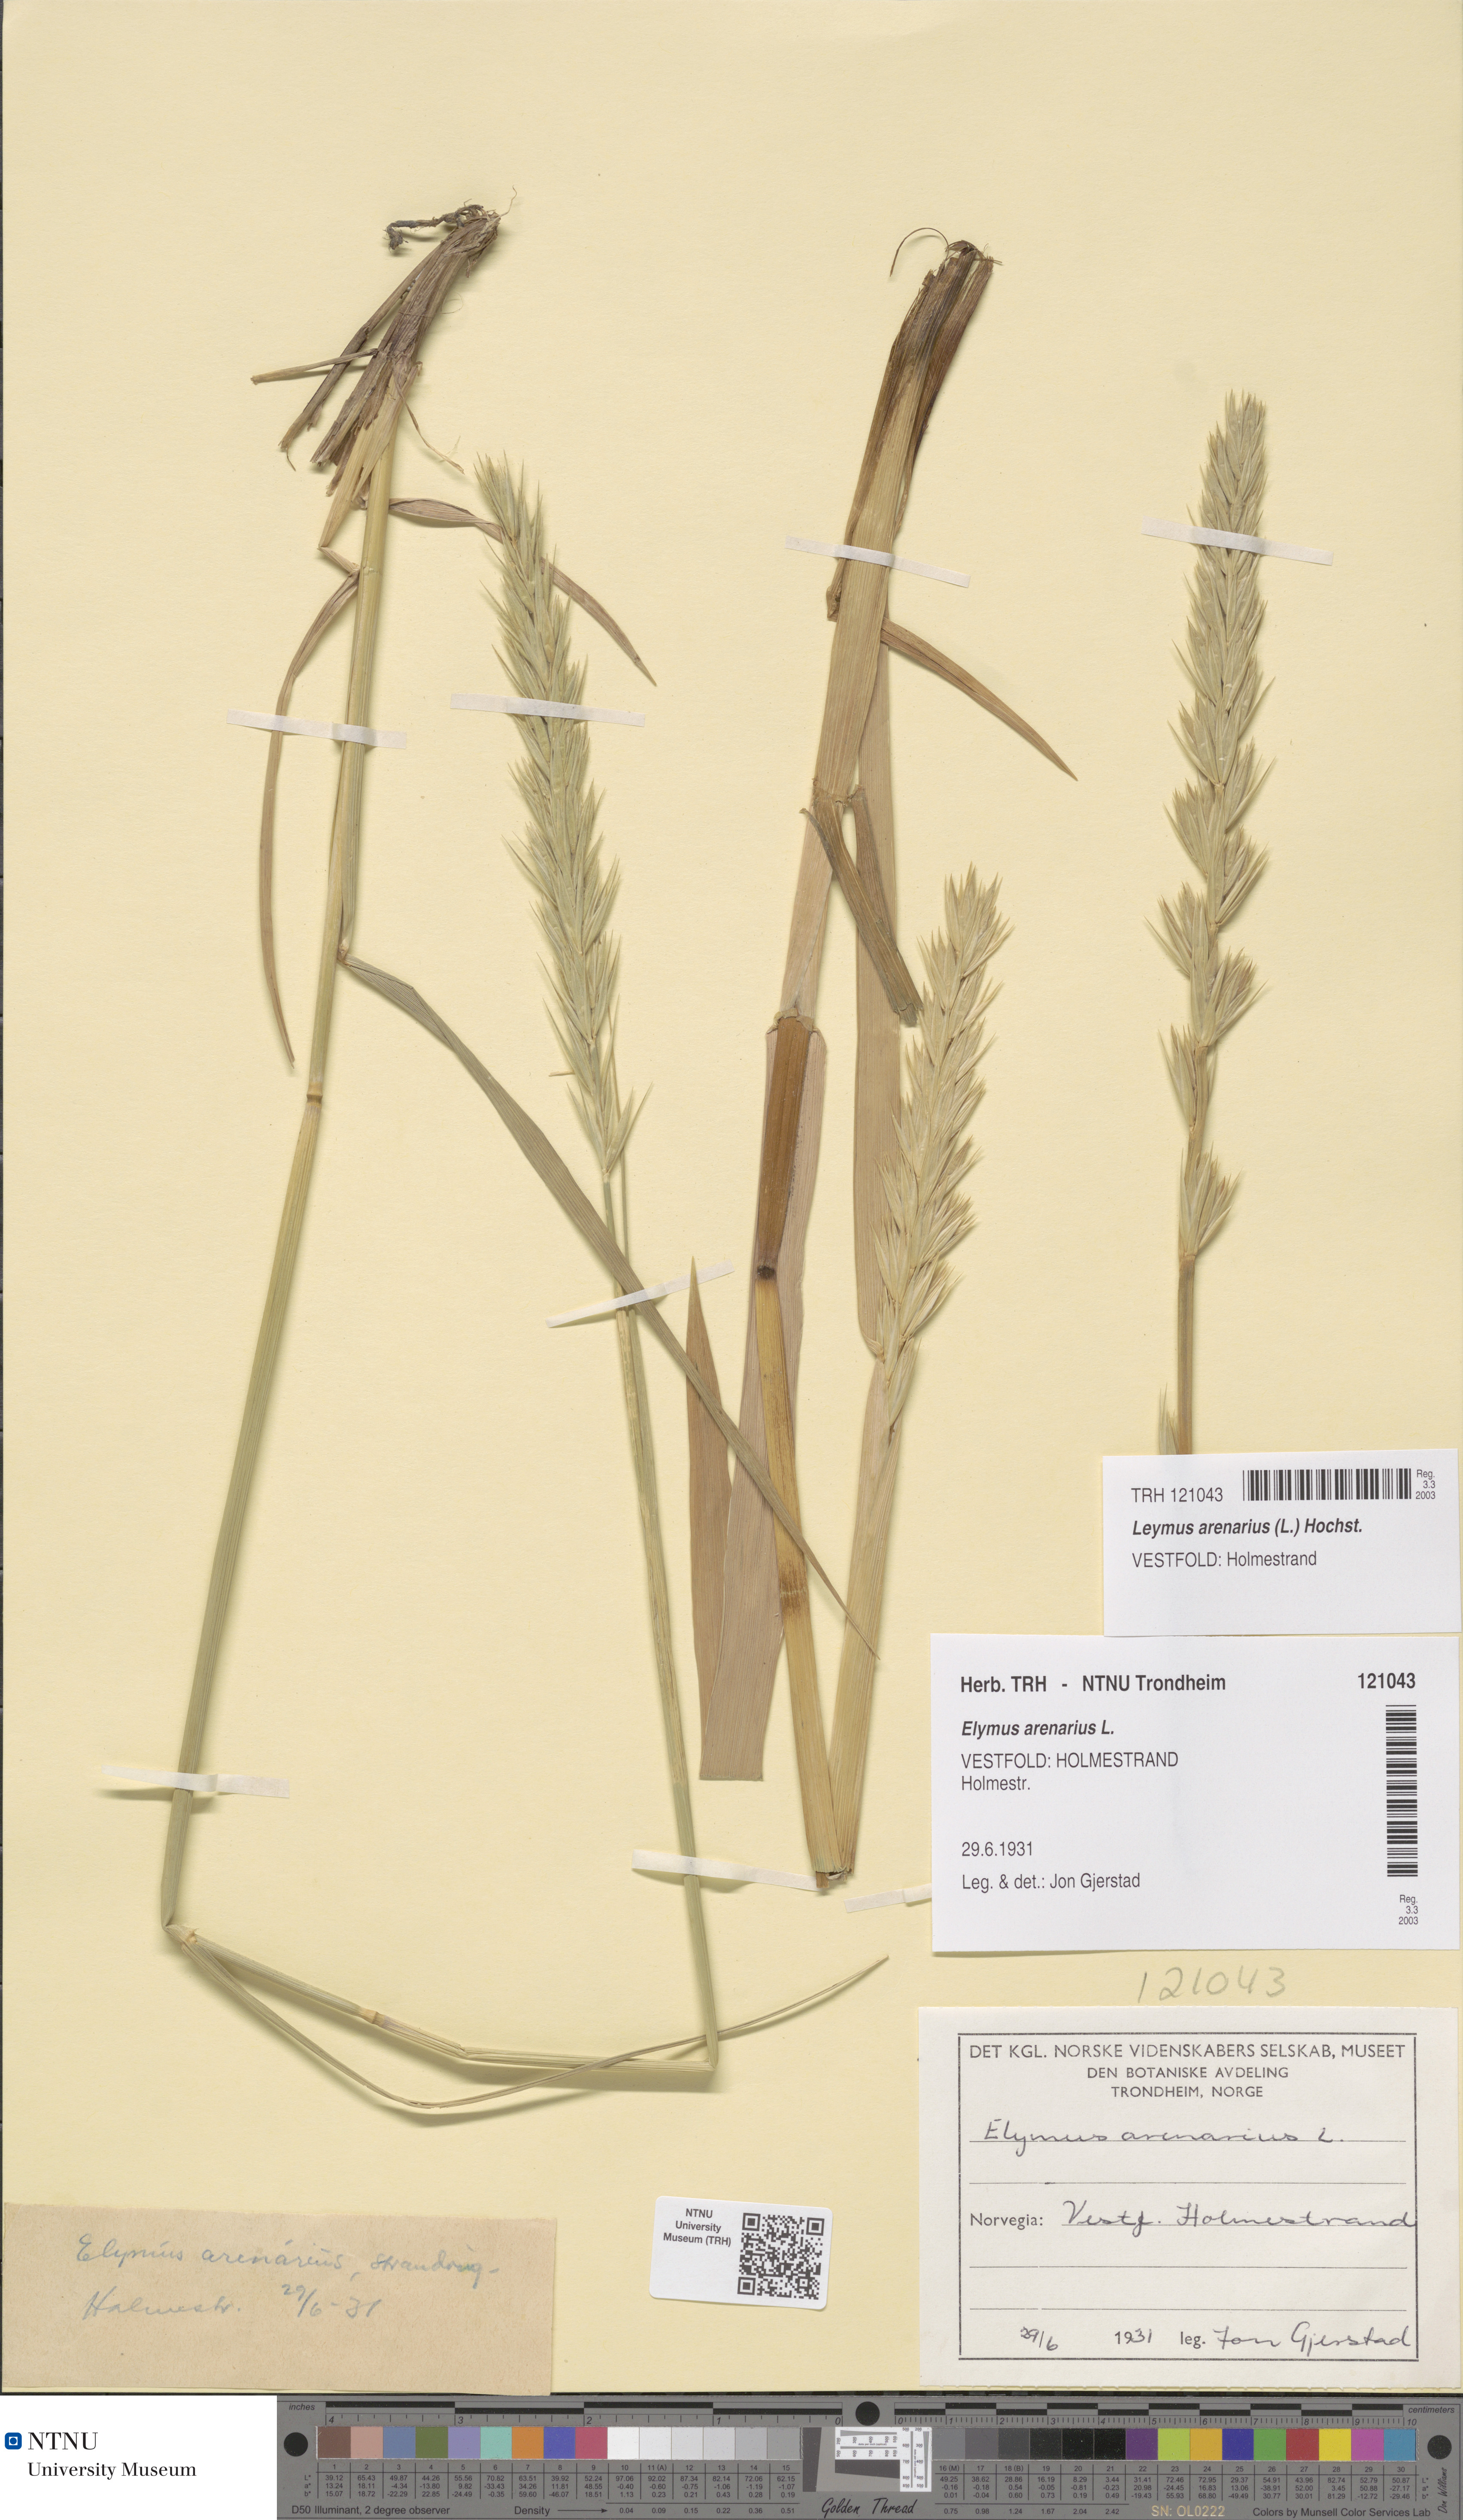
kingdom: Plantae
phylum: Tracheophyta
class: Liliopsida
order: Poales
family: Poaceae
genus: Leymus
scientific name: Leymus arenarius
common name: Lyme-grass
